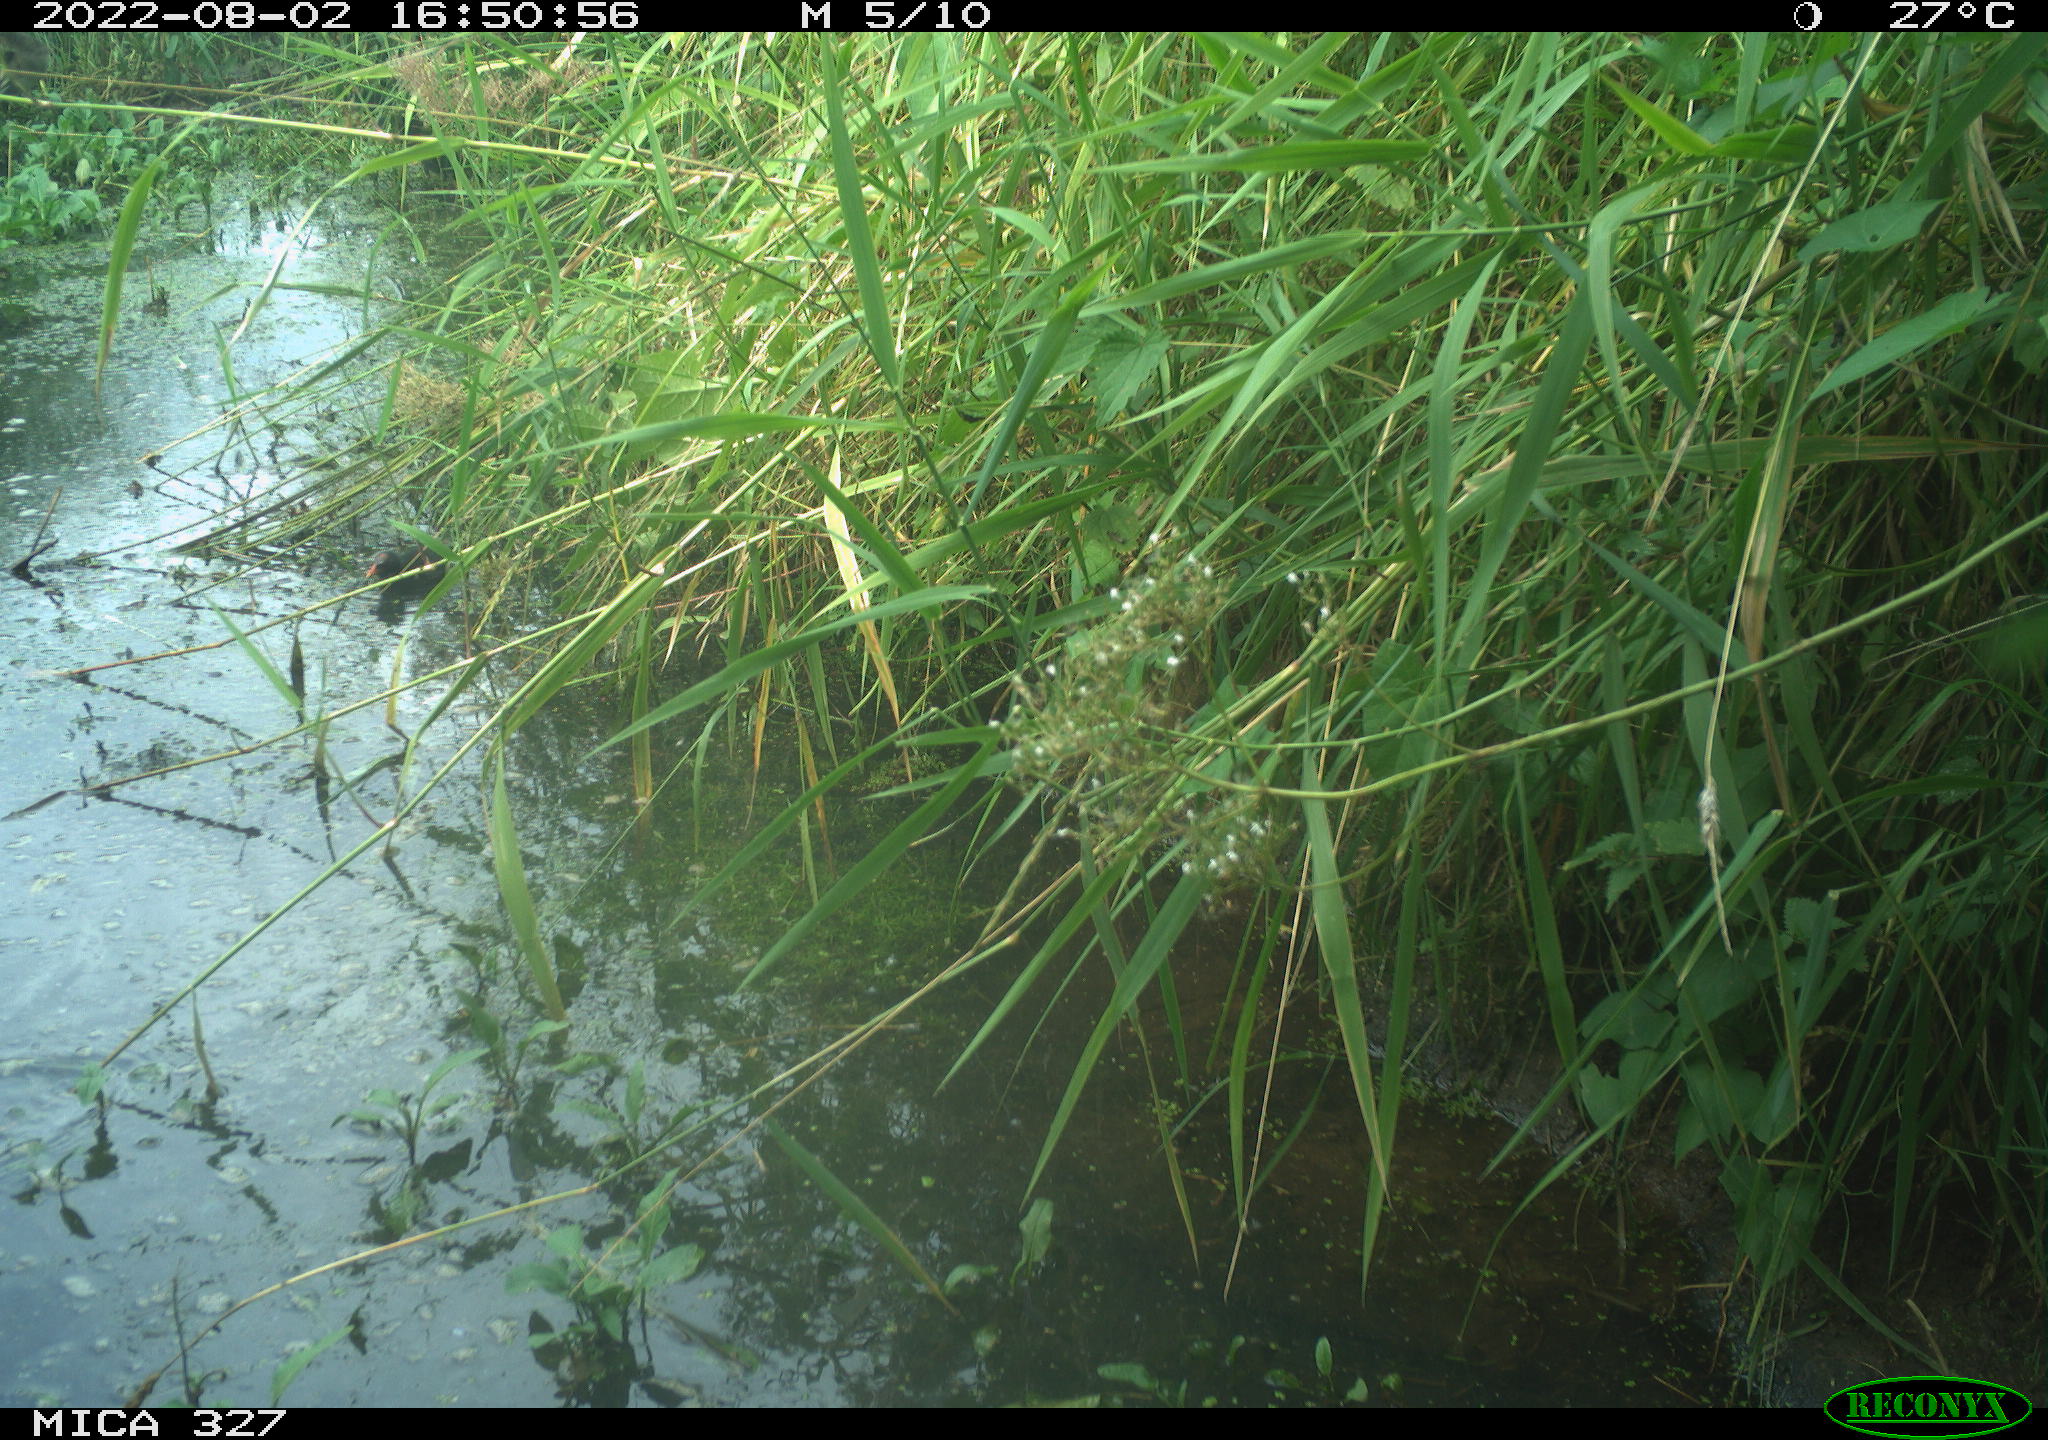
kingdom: Animalia
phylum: Chordata
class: Aves
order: Gruiformes
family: Rallidae
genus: Gallinula
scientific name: Gallinula chloropus
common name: Common moorhen
